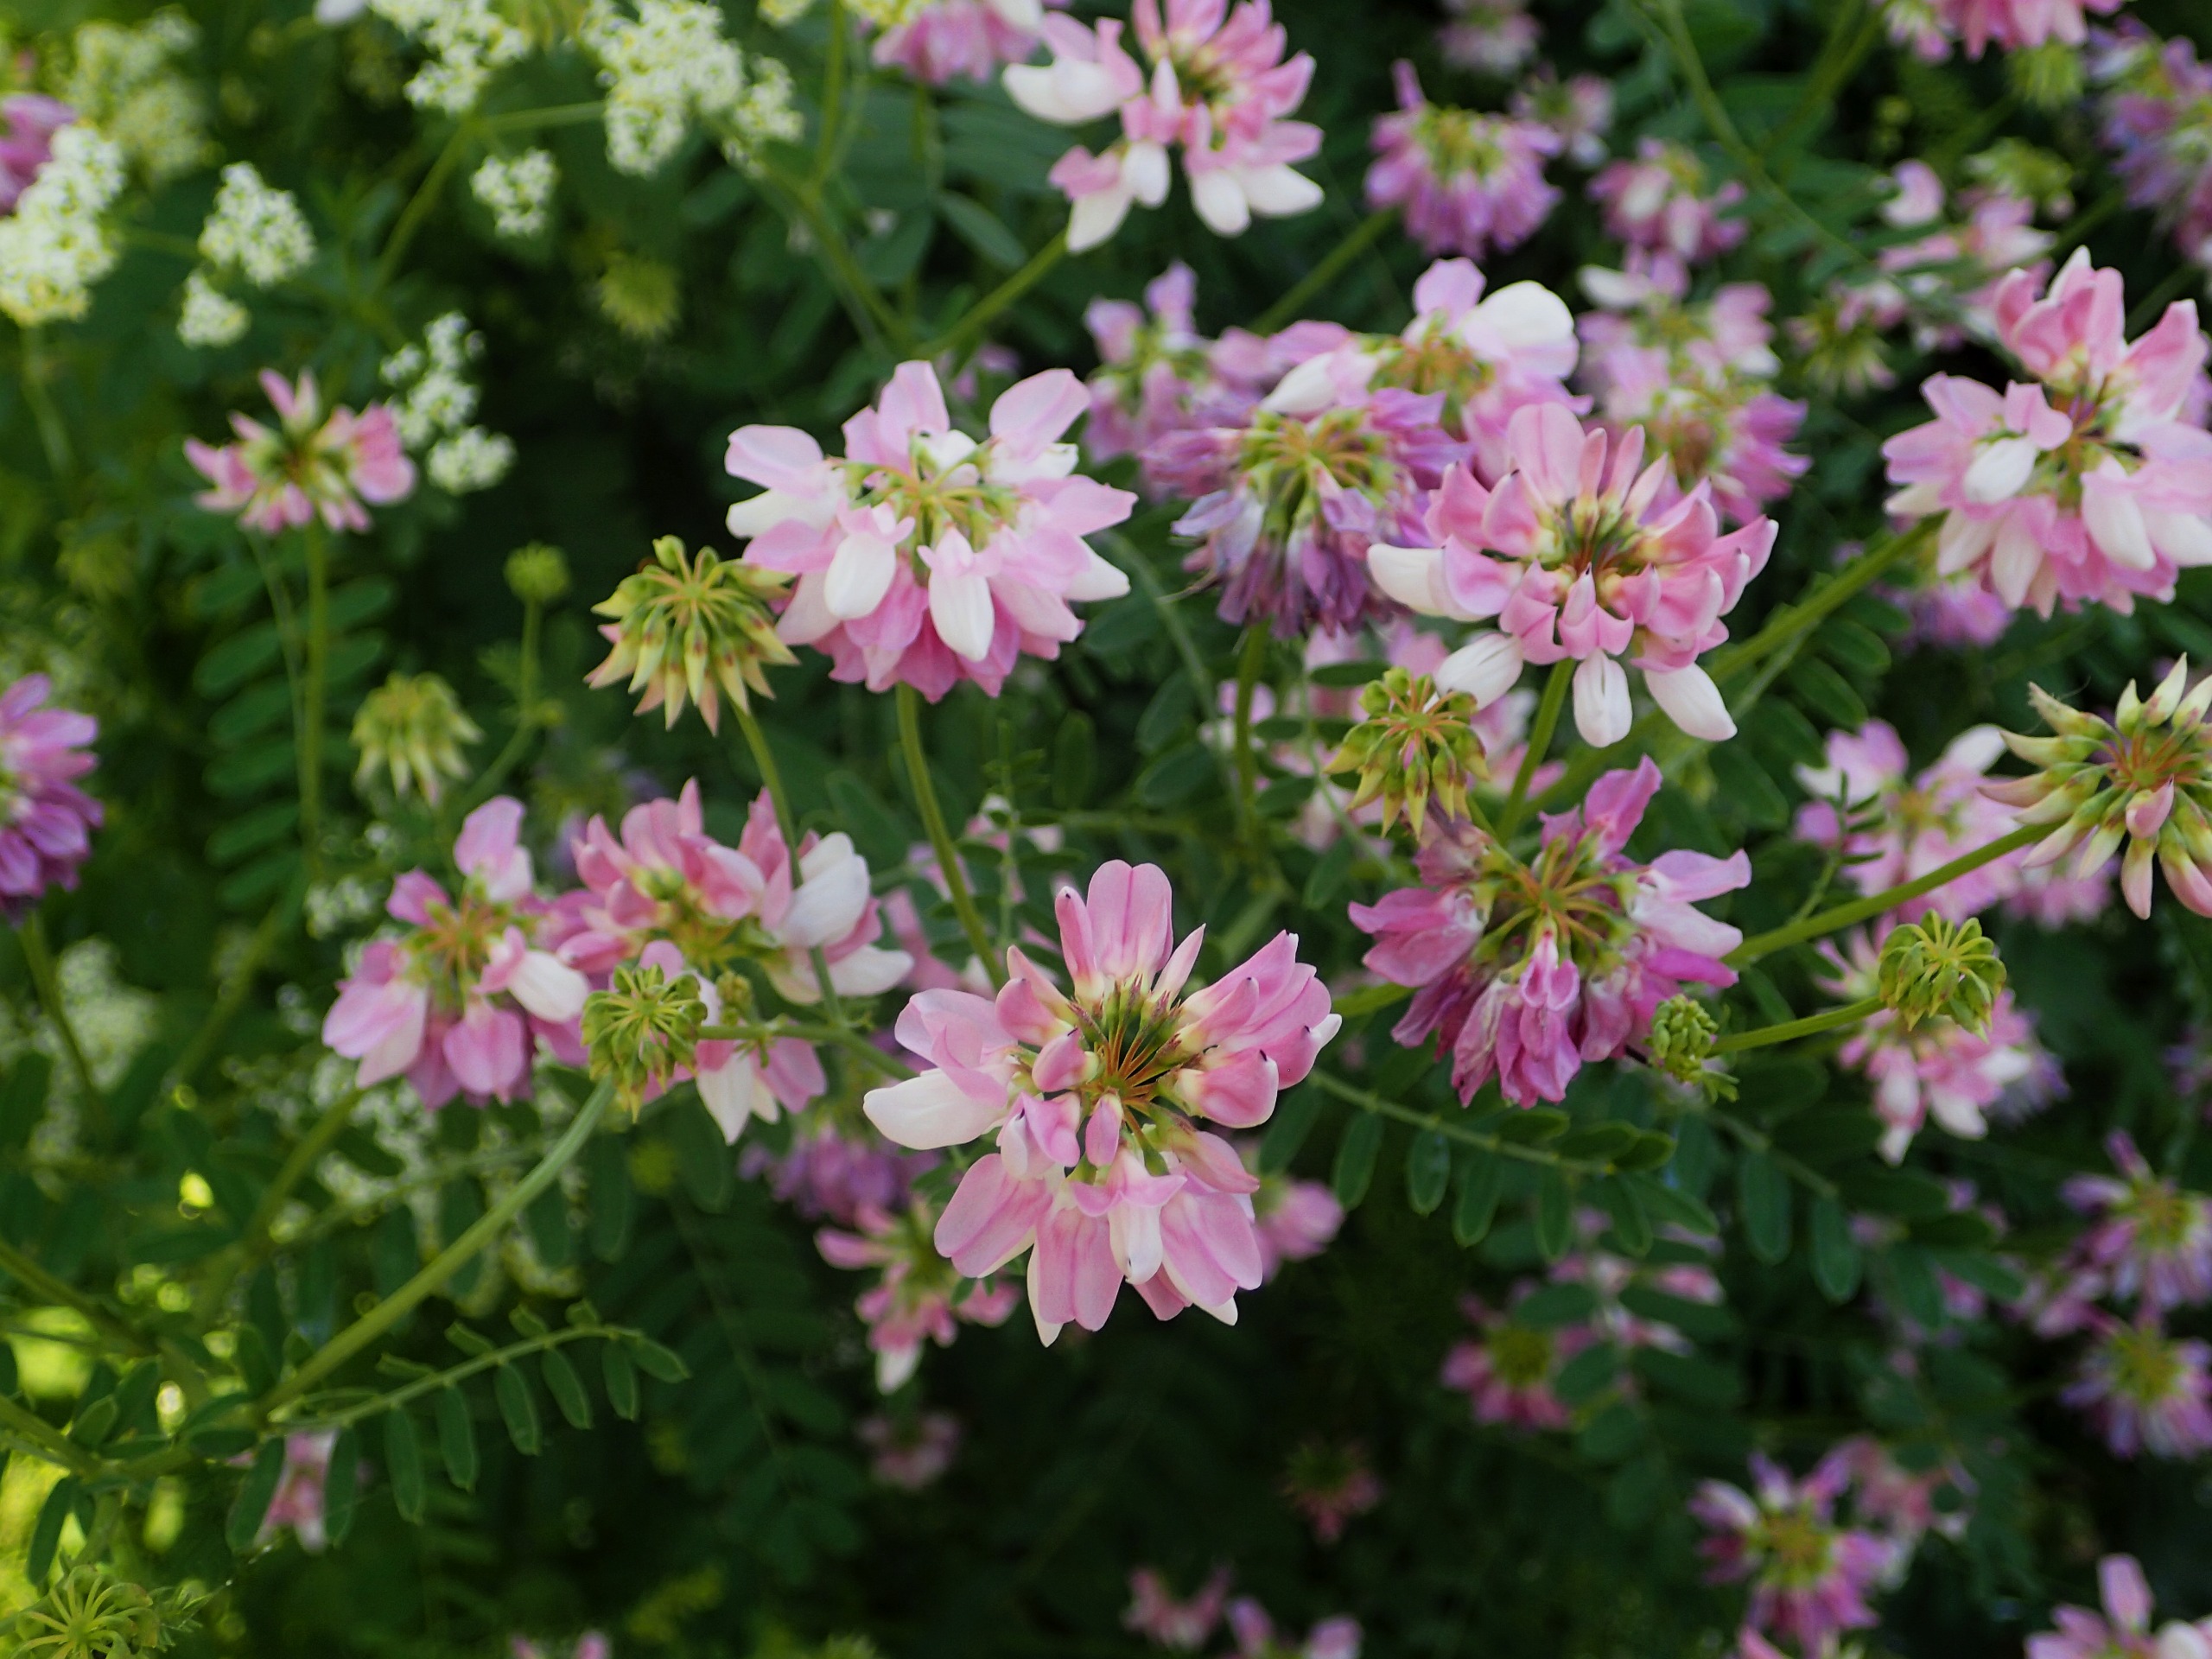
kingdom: Plantae
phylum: Tracheophyta
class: Magnoliopsida
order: Fabales
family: Fabaceae
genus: Coronilla
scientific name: Coronilla varia
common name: Giftig kronvikke
